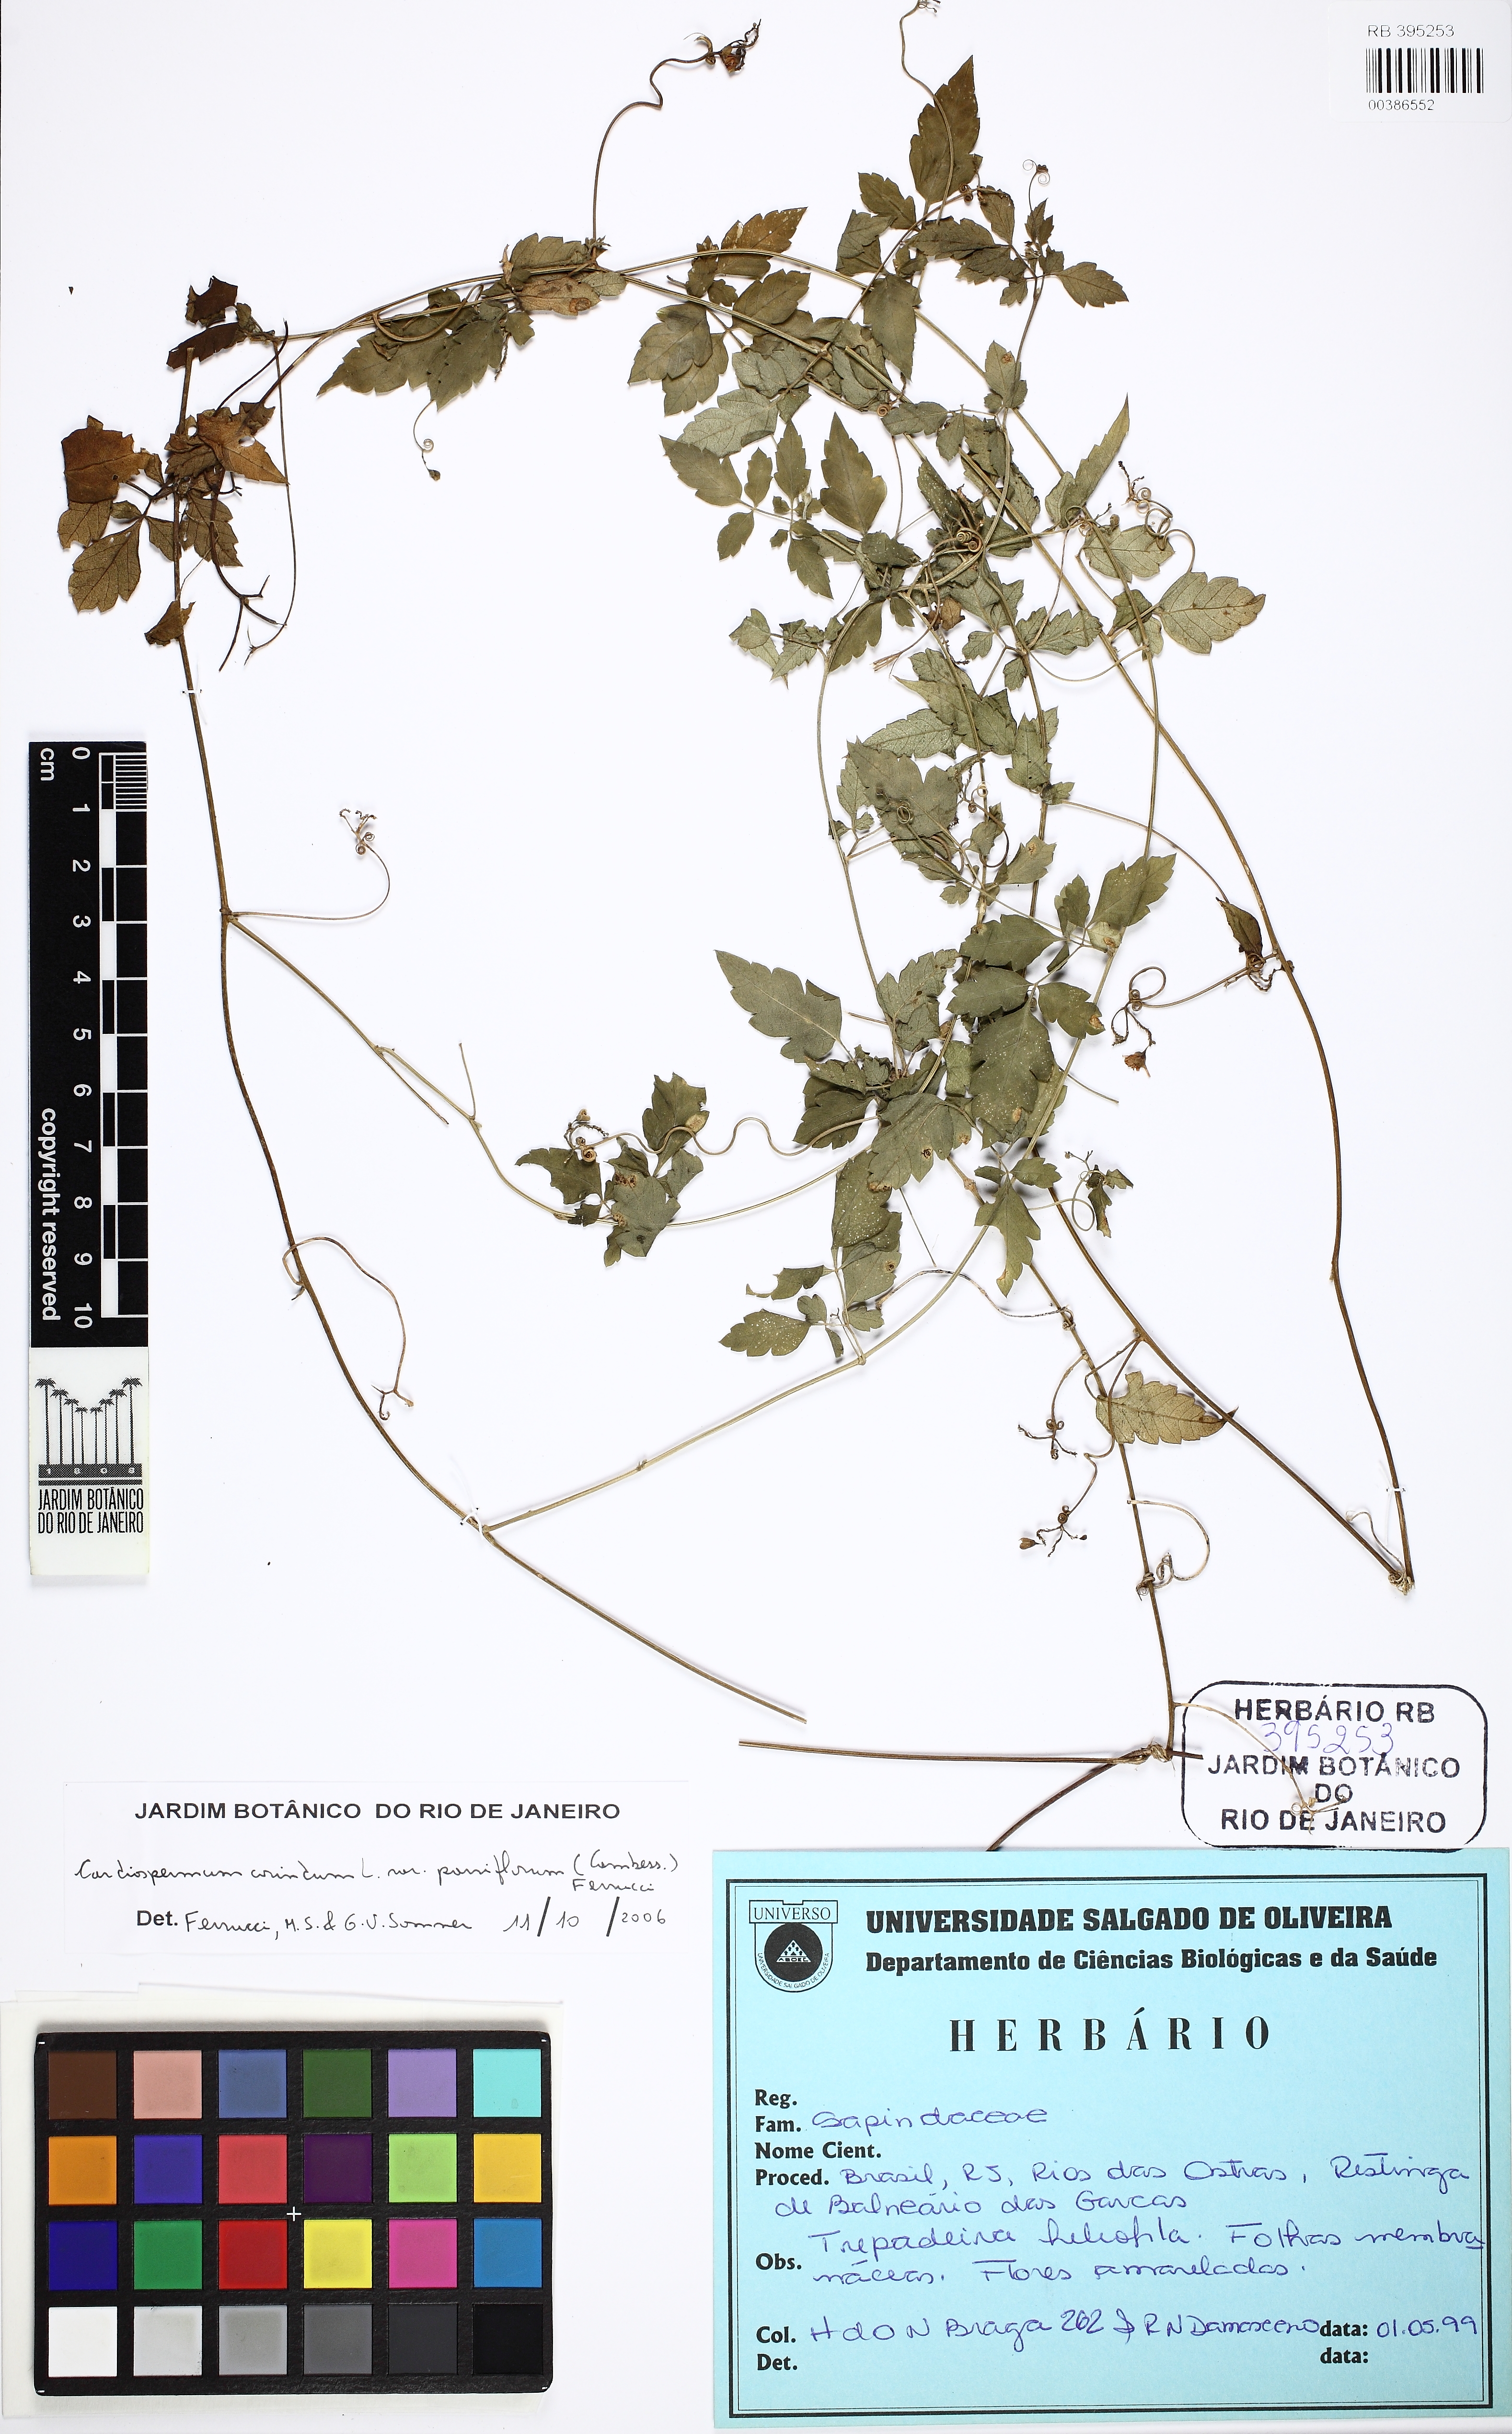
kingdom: Plantae
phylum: Tracheophyta
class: Magnoliopsida
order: Sapindales
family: Sapindaceae
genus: Cardiospermum
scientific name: Cardiospermum corindum
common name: Faux persil
